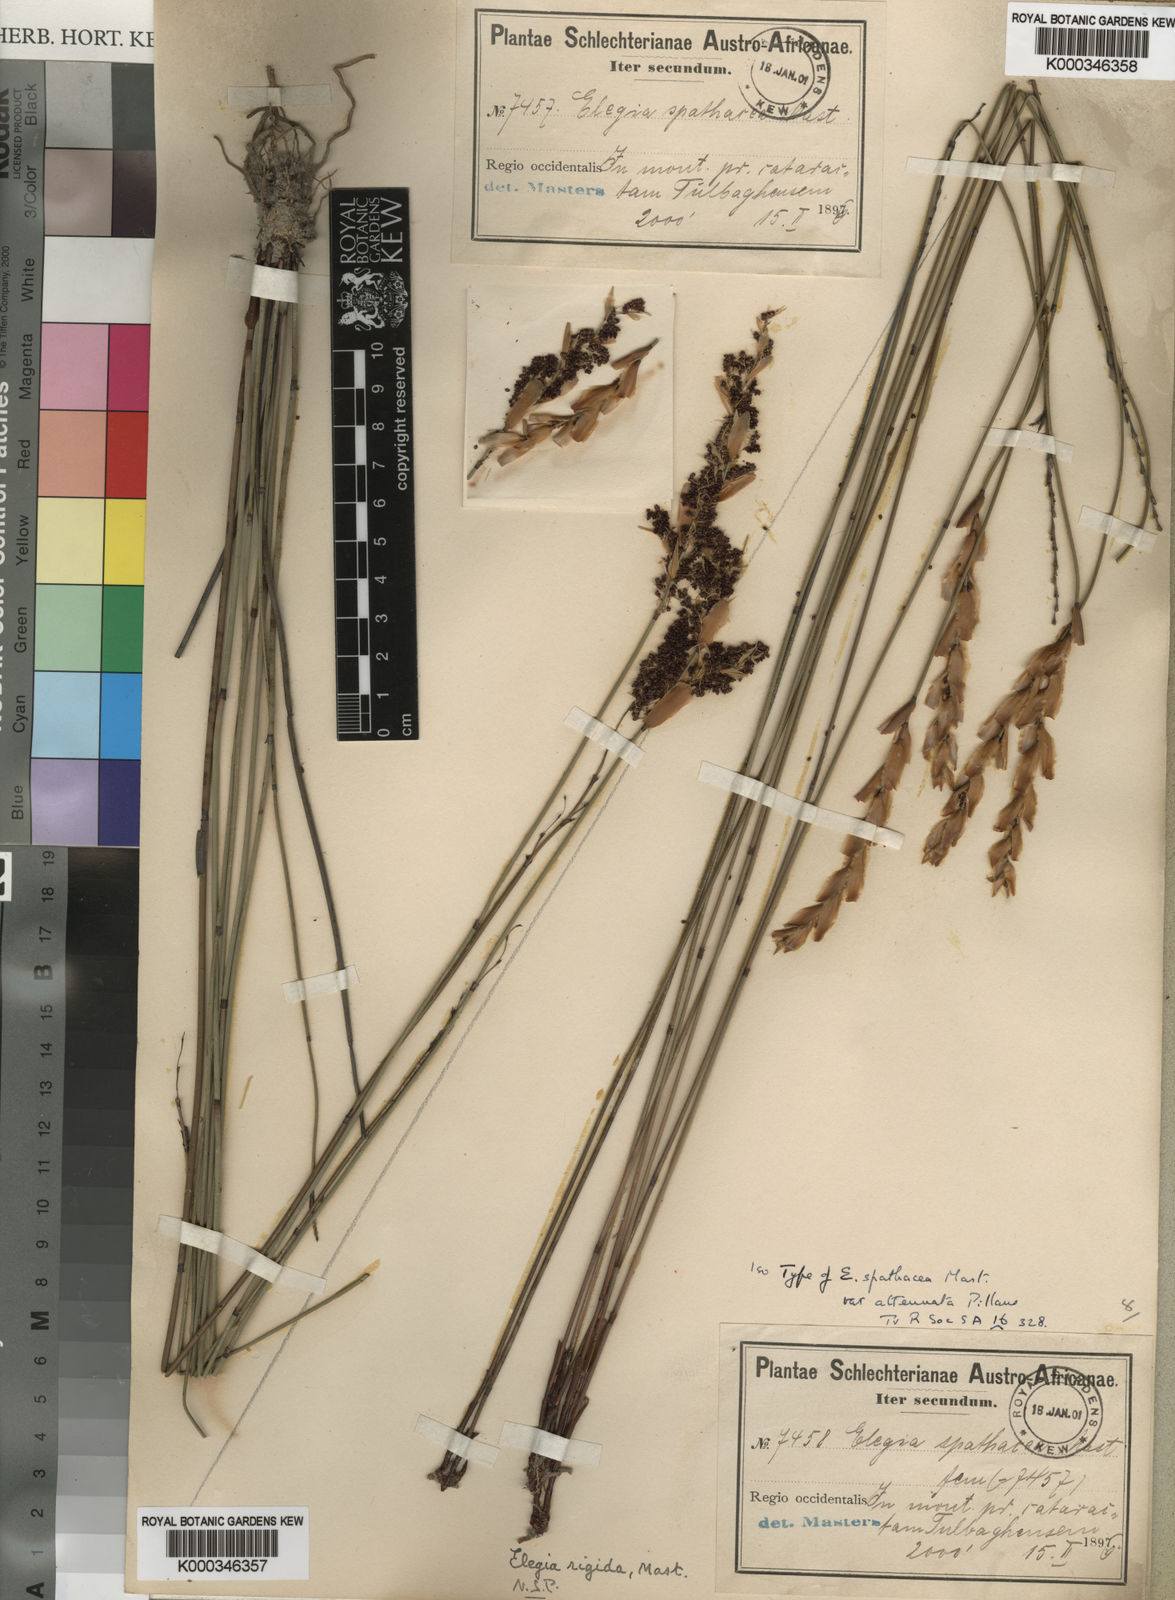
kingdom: Plantae
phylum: Tracheophyta
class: Liliopsida
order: Poales
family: Restionaceae
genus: Elegia
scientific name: Elegia rigida
